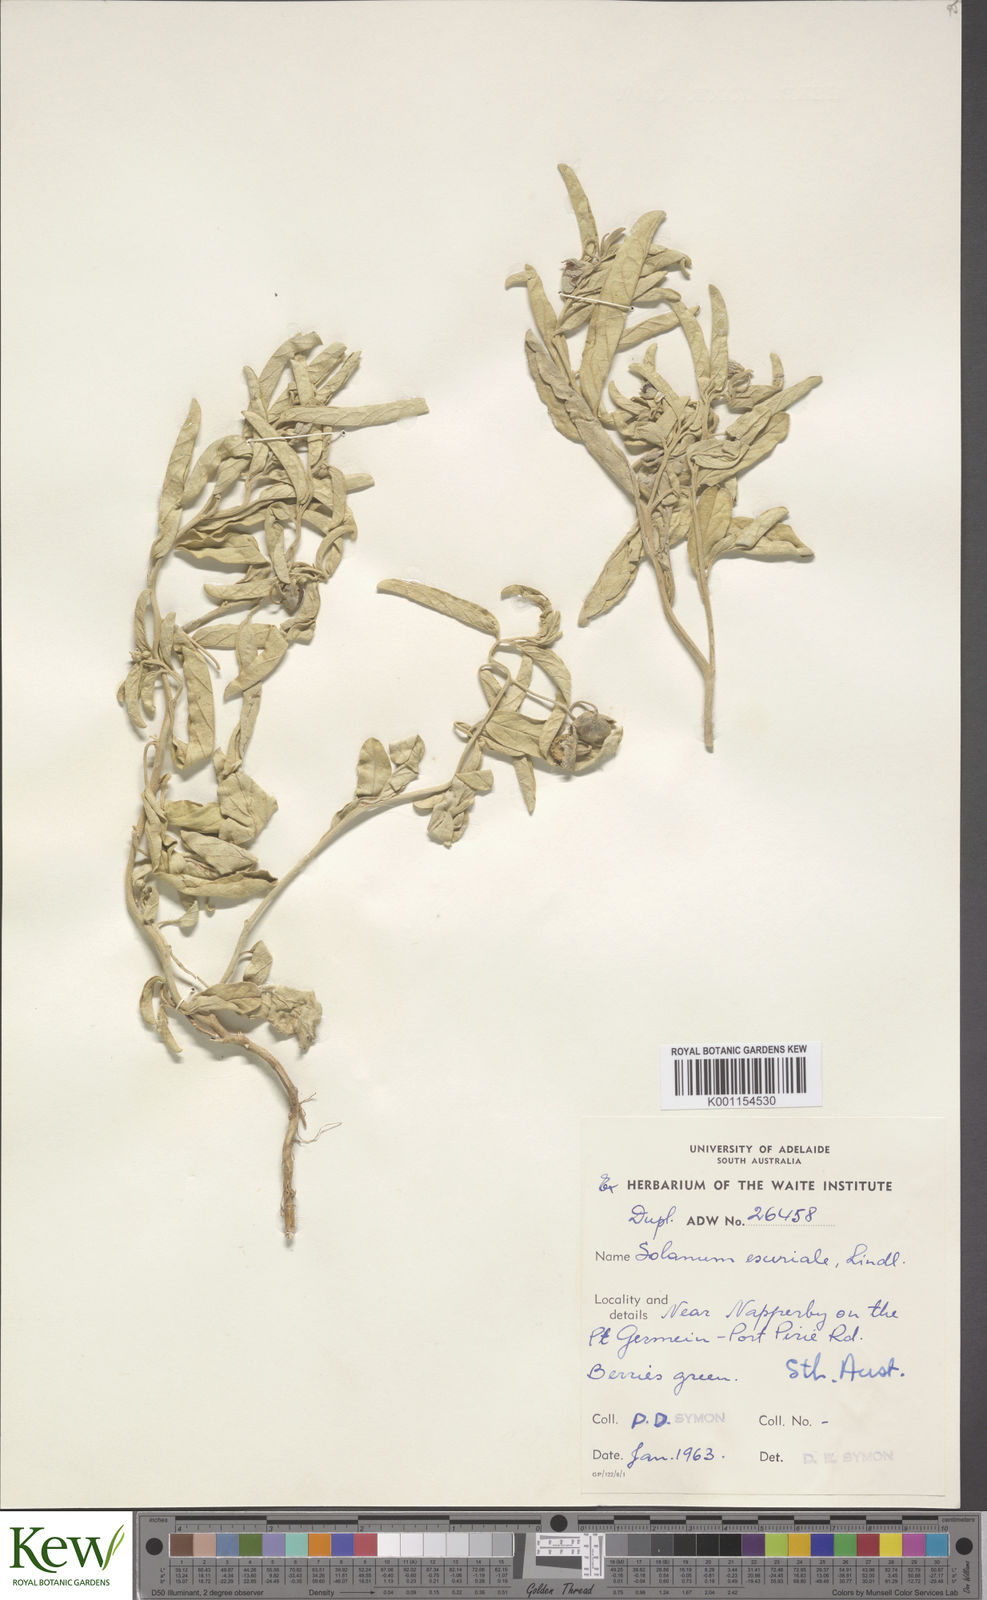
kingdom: Plantae
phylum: Tracheophyta
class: Magnoliopsida
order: Solanales
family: Solanaceae
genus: Solanum
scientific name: Solanum esuriale
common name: Wild tomato
